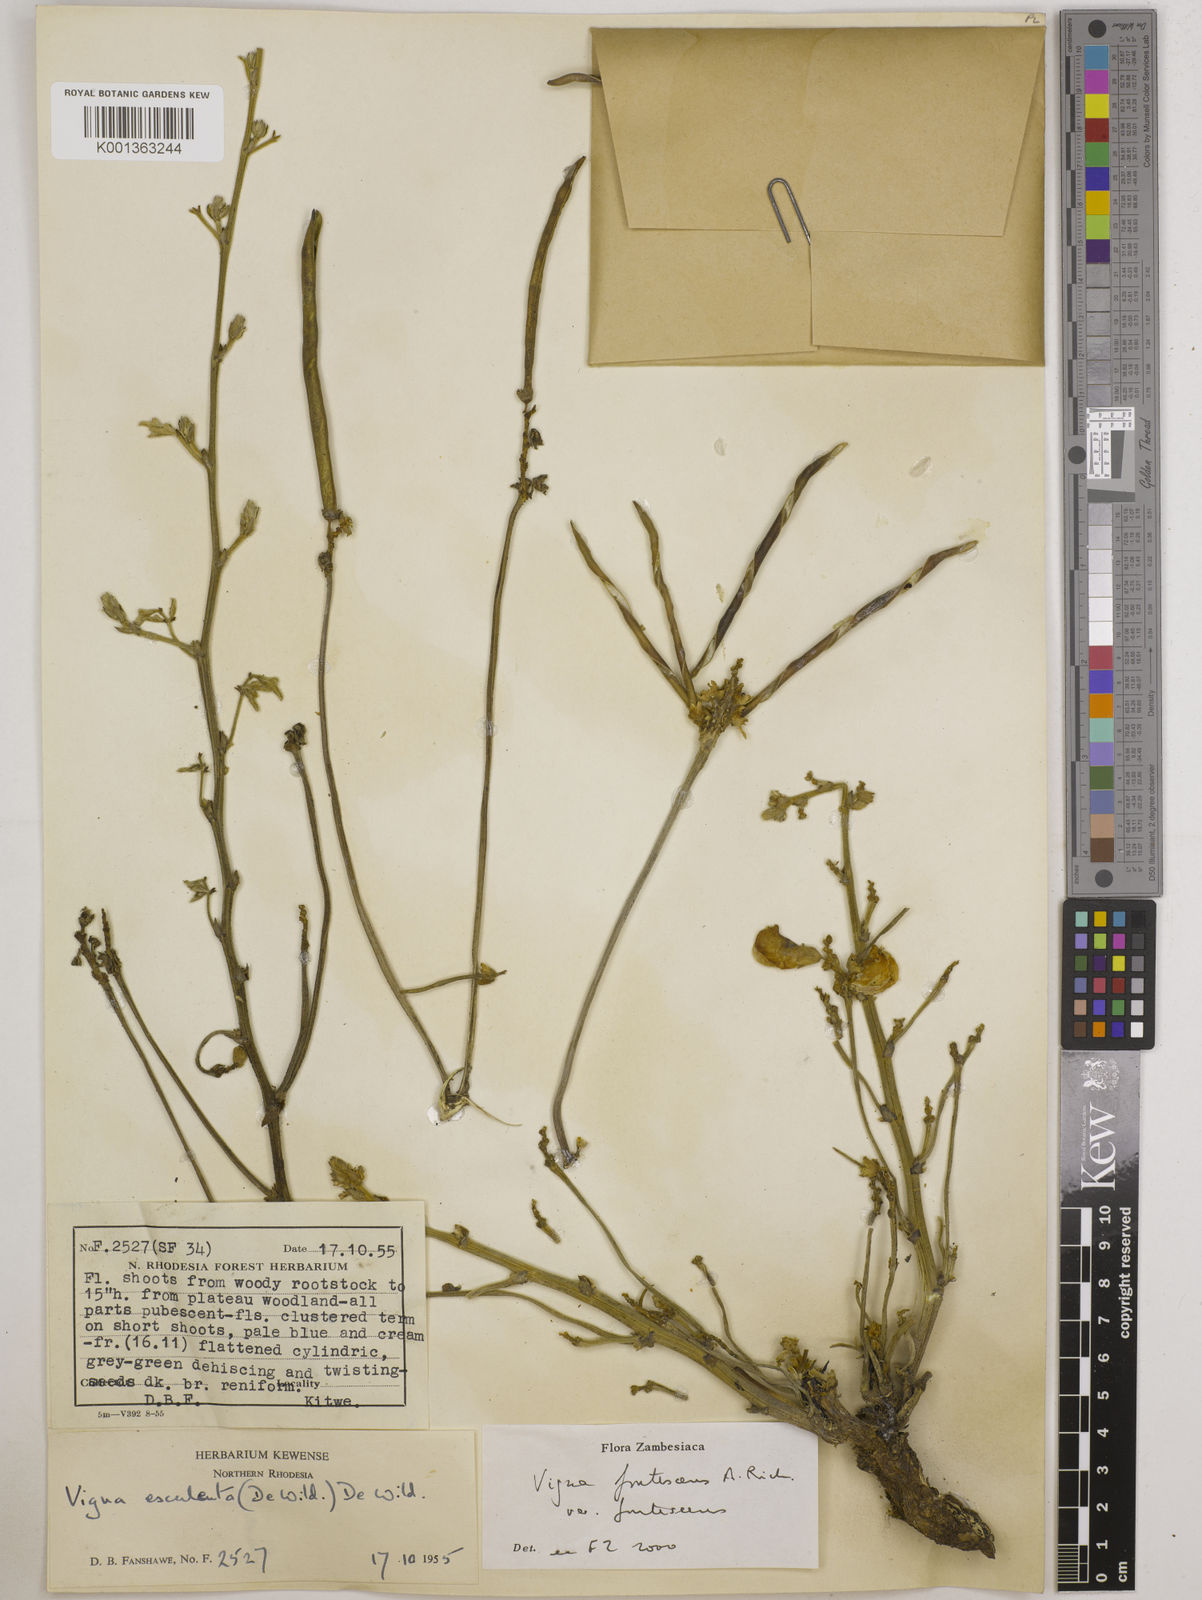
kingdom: Plantae
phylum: Tracheophyta
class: Magnoliopsida
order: Fabales
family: Fabaceae
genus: Vigna
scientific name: Vigna
